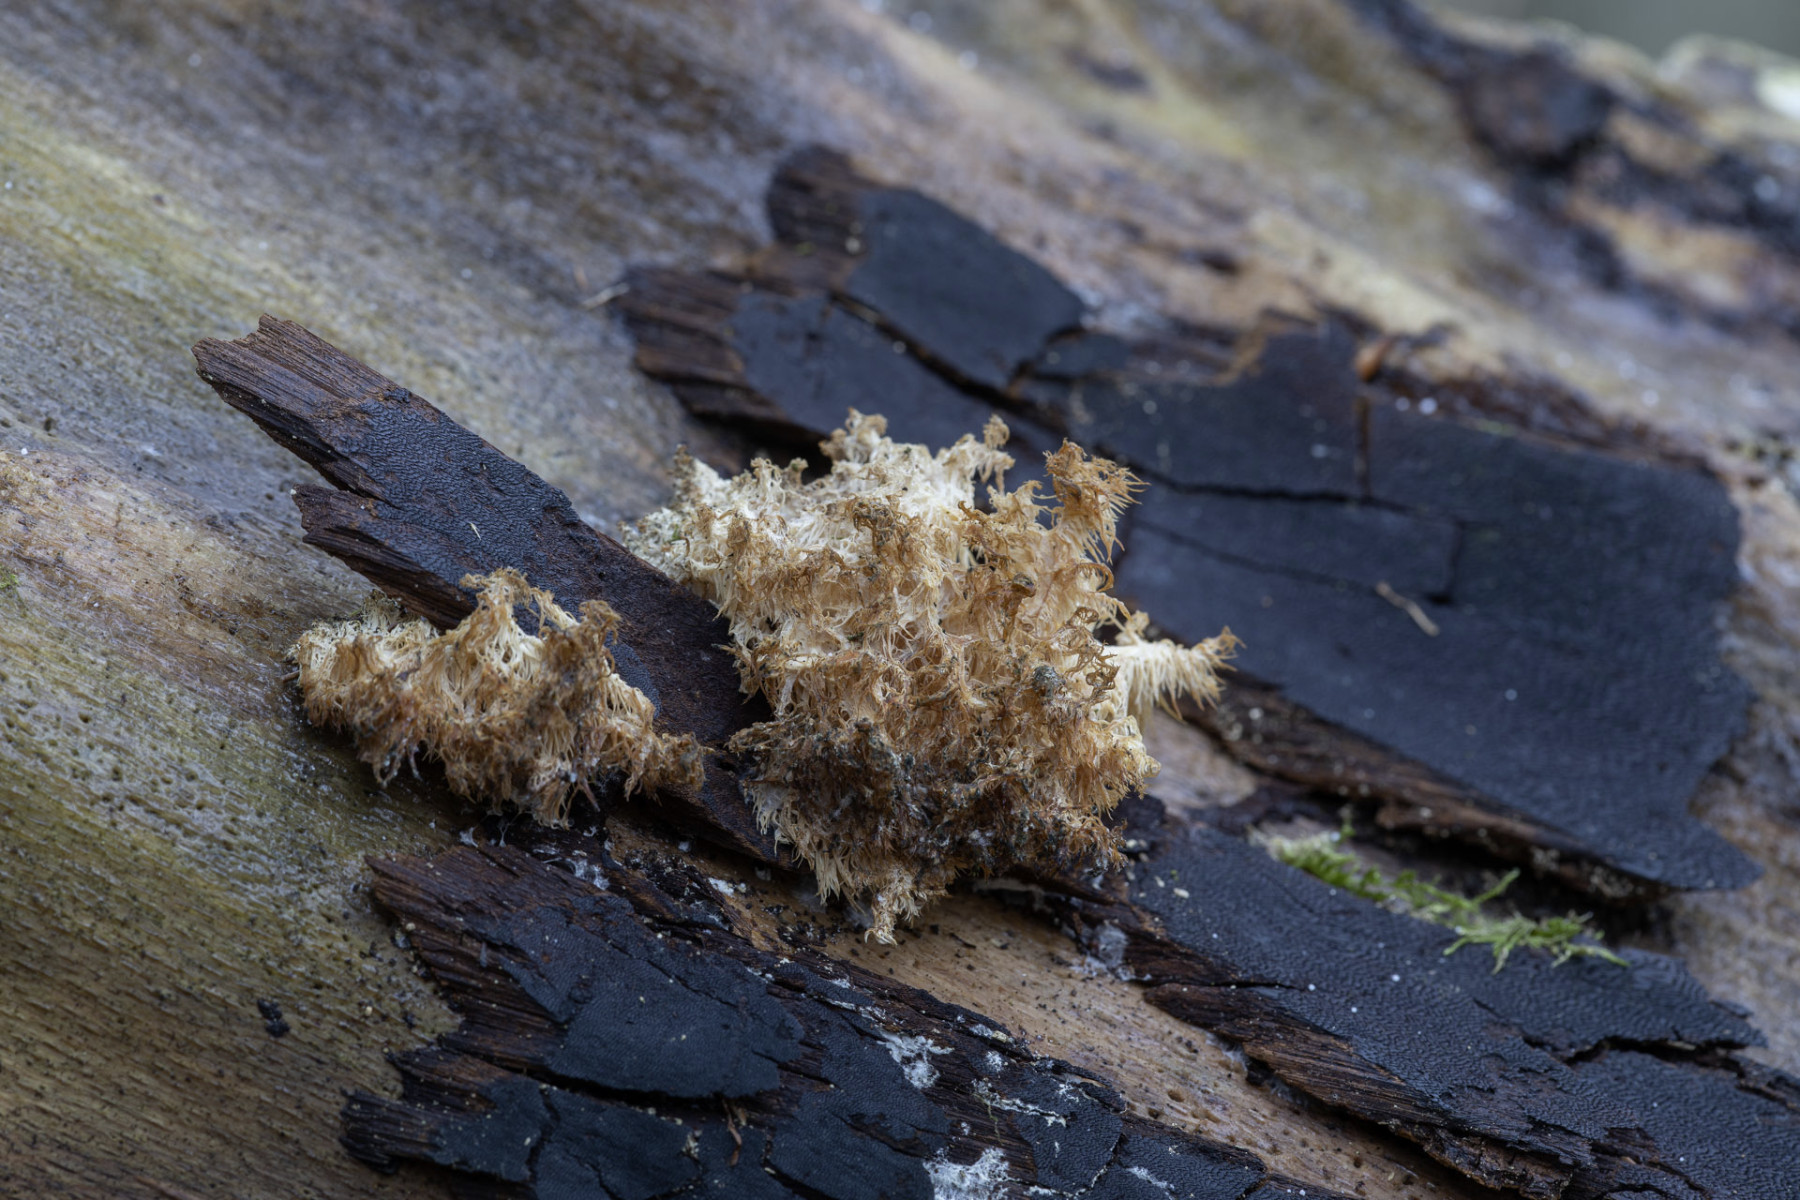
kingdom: Fungi
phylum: Basidiomycota
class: Agaricomycetes
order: Russulales
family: Hericiaceae
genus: Hericium
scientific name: Hericium coralloides
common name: koralpigsvamp
